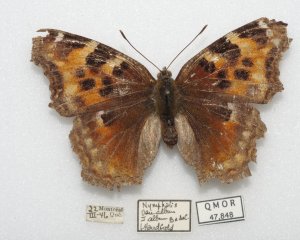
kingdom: Animalia
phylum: Arthropoda
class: Insecta
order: Lepidoptera
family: Nymphalidae
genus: Polygonia
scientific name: Polygonia vaualbum
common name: Compton Tortoiseshell
